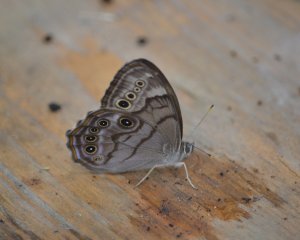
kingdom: Animalia
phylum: Arthropoda
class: Insecta
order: Lepidoptera
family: Nymphalidae
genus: Lethe
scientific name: Lethe anthedon
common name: Northern Pearly-Eye
